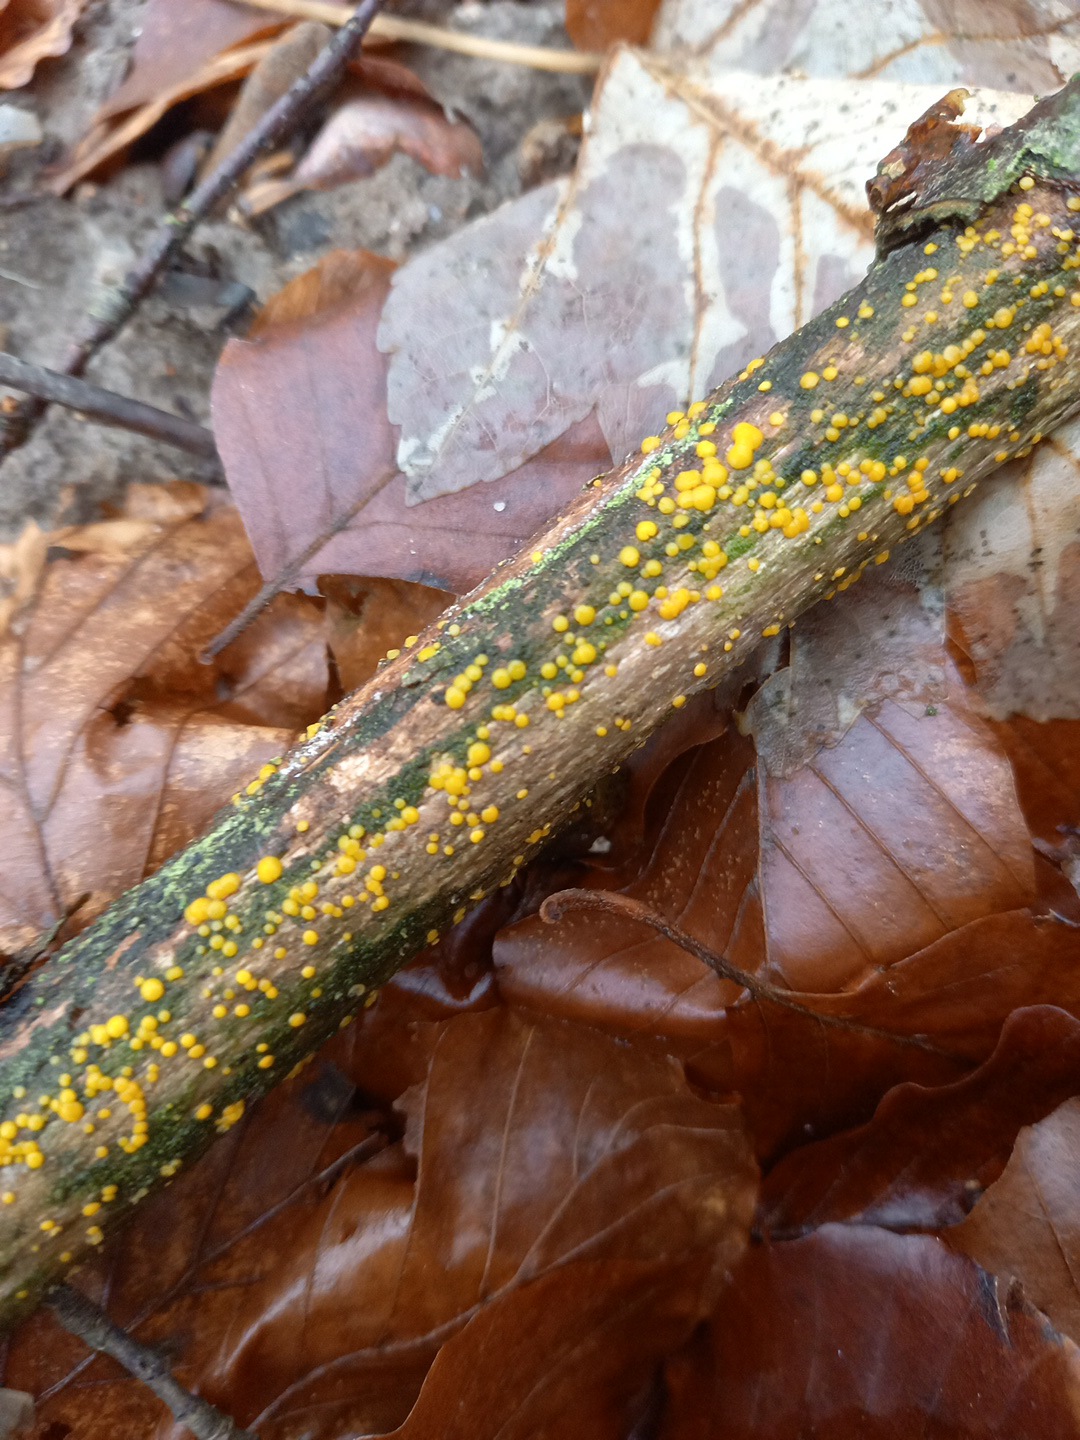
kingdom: Fungi
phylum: Ascomycota
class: Leotiomycetes
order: Helotiales
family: Pezizellaceae
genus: Calycina
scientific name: Calycina citrina
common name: almindelig gulskive
